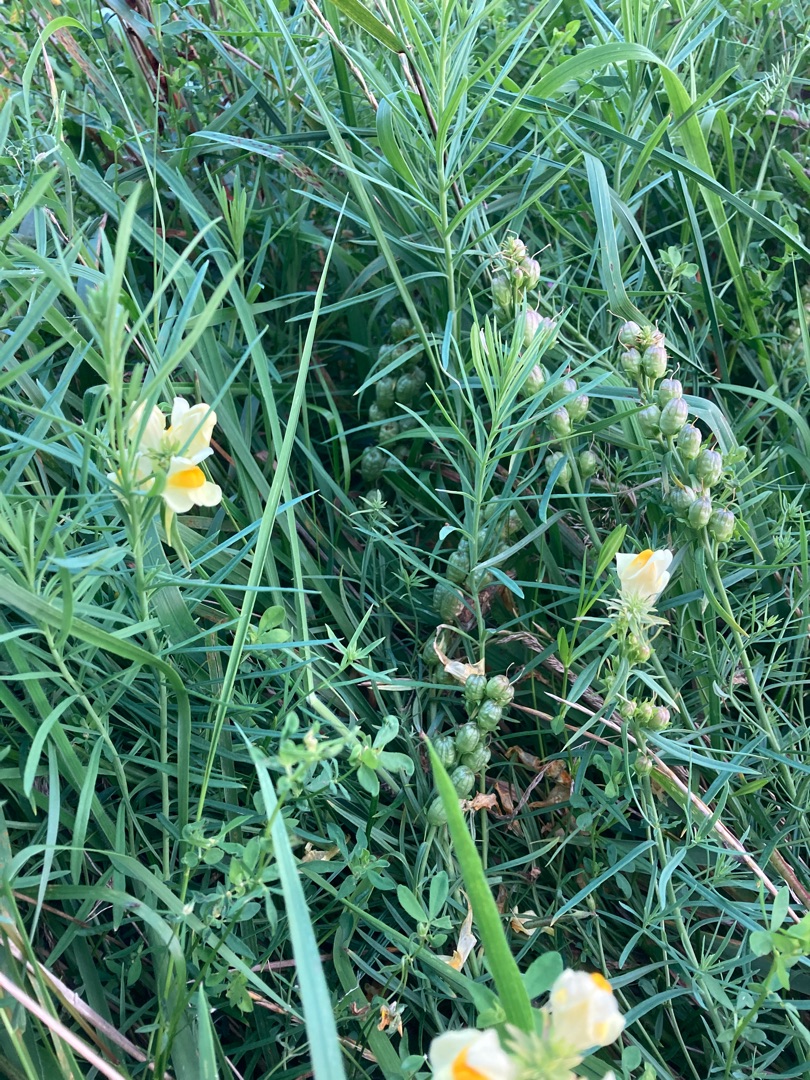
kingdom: Plantae
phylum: Tracheophyta
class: Magnoliopsida
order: Lamiales
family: Plantaginaceae
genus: Linaria
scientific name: Linaria vulgaris
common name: Almindelig torskemund
